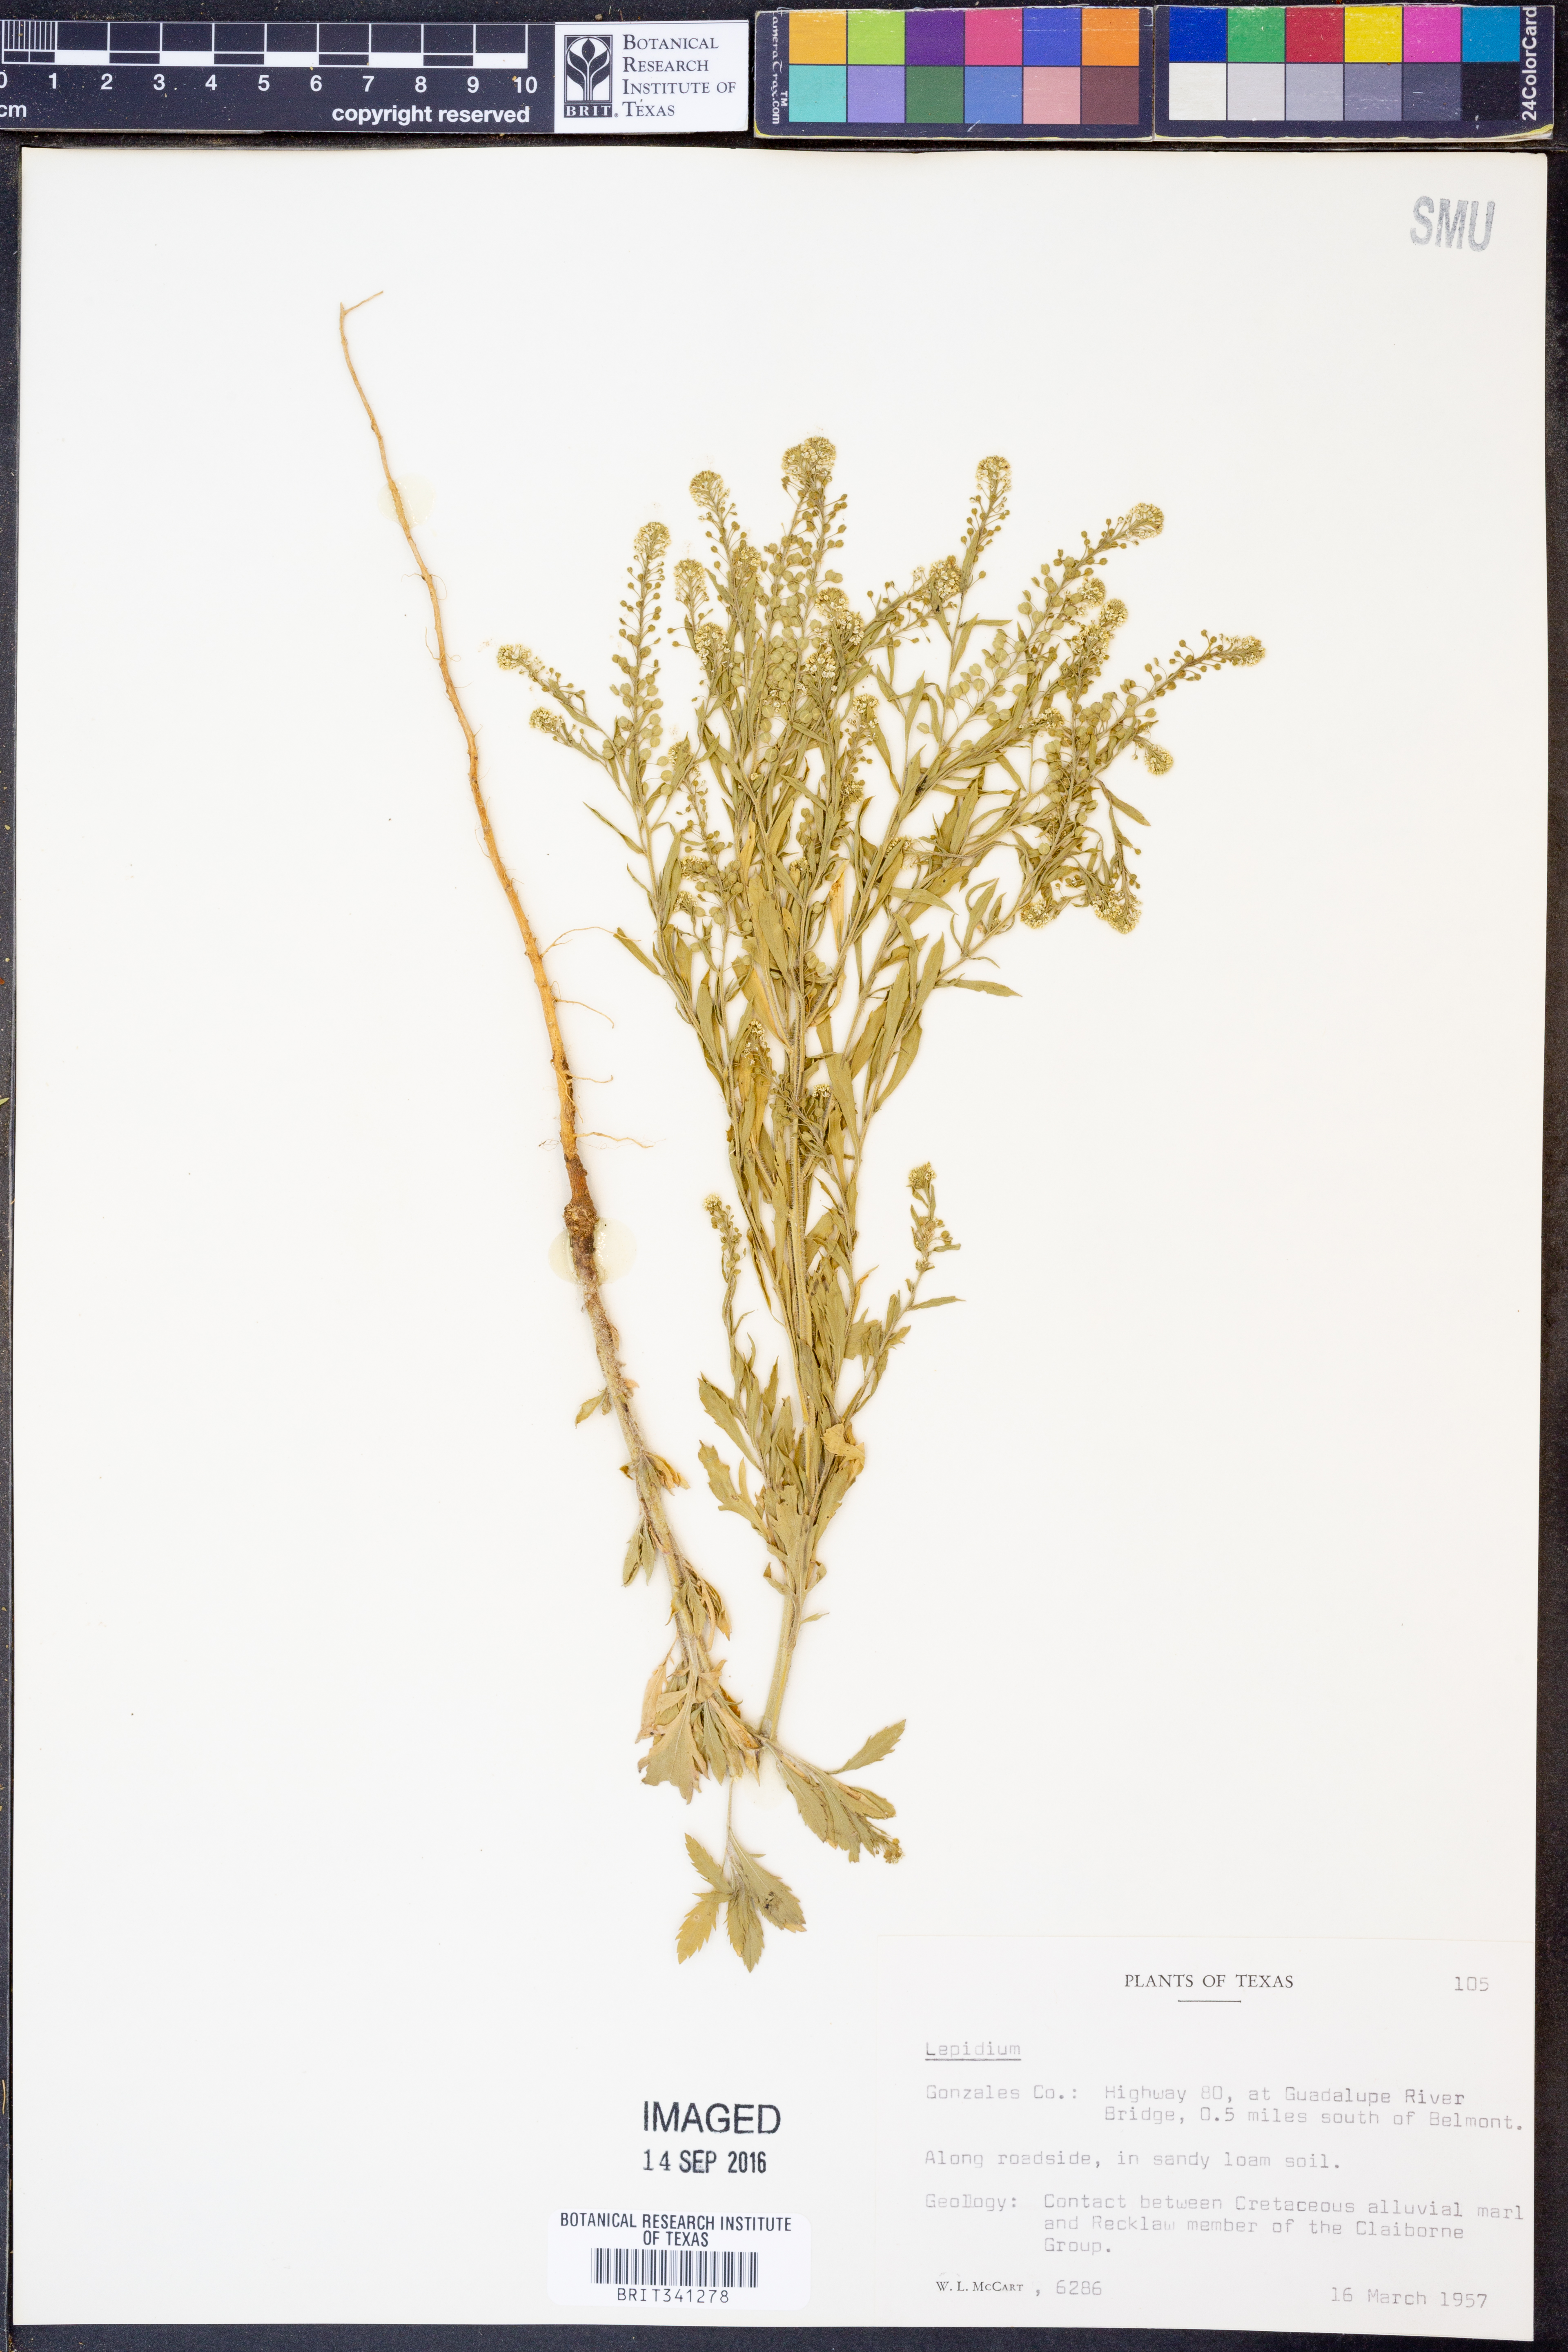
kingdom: Plantae
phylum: Tracheophyta
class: Magnoliopsida
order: Brassicales
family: Brassicaceae
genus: Lepidium
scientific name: Lepidium
